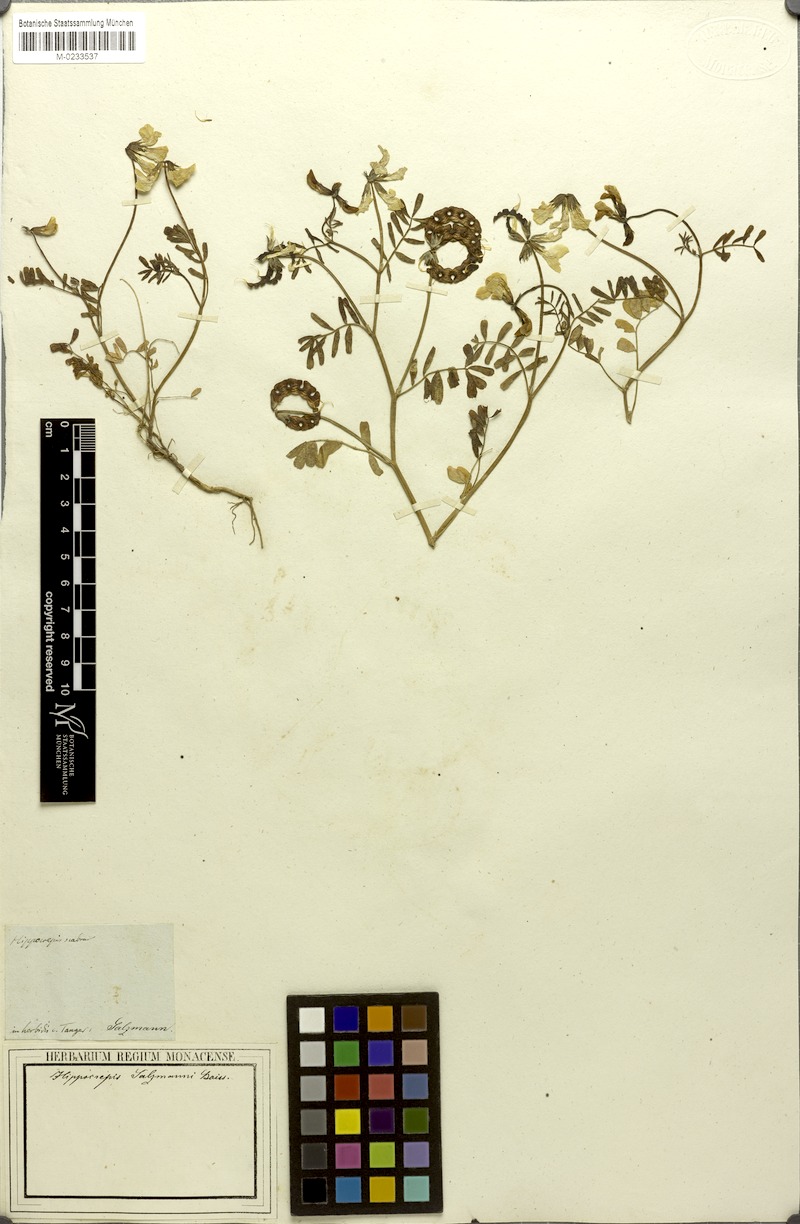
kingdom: Plantae
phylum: Tracheophyta
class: Magnoliopsida
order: Fabales
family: Fabaceae
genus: Hippocrepis
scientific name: Hippocrepis salzmannii
